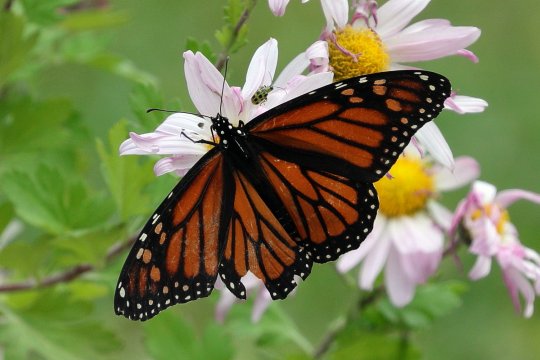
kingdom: Animalia
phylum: Arthropoda
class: Insecta
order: Lepidoptera
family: Nymphalidae
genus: Danaus
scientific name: Danaus plexippus
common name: Monarch
